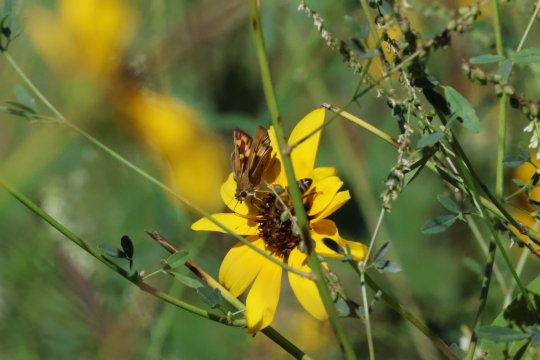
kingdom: Animalia
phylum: Arthropoda
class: Insecta
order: Lepidoptera
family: Hesperiidae
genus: Hylephila
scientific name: Hylephila phyleus
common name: Fiery Skipper
